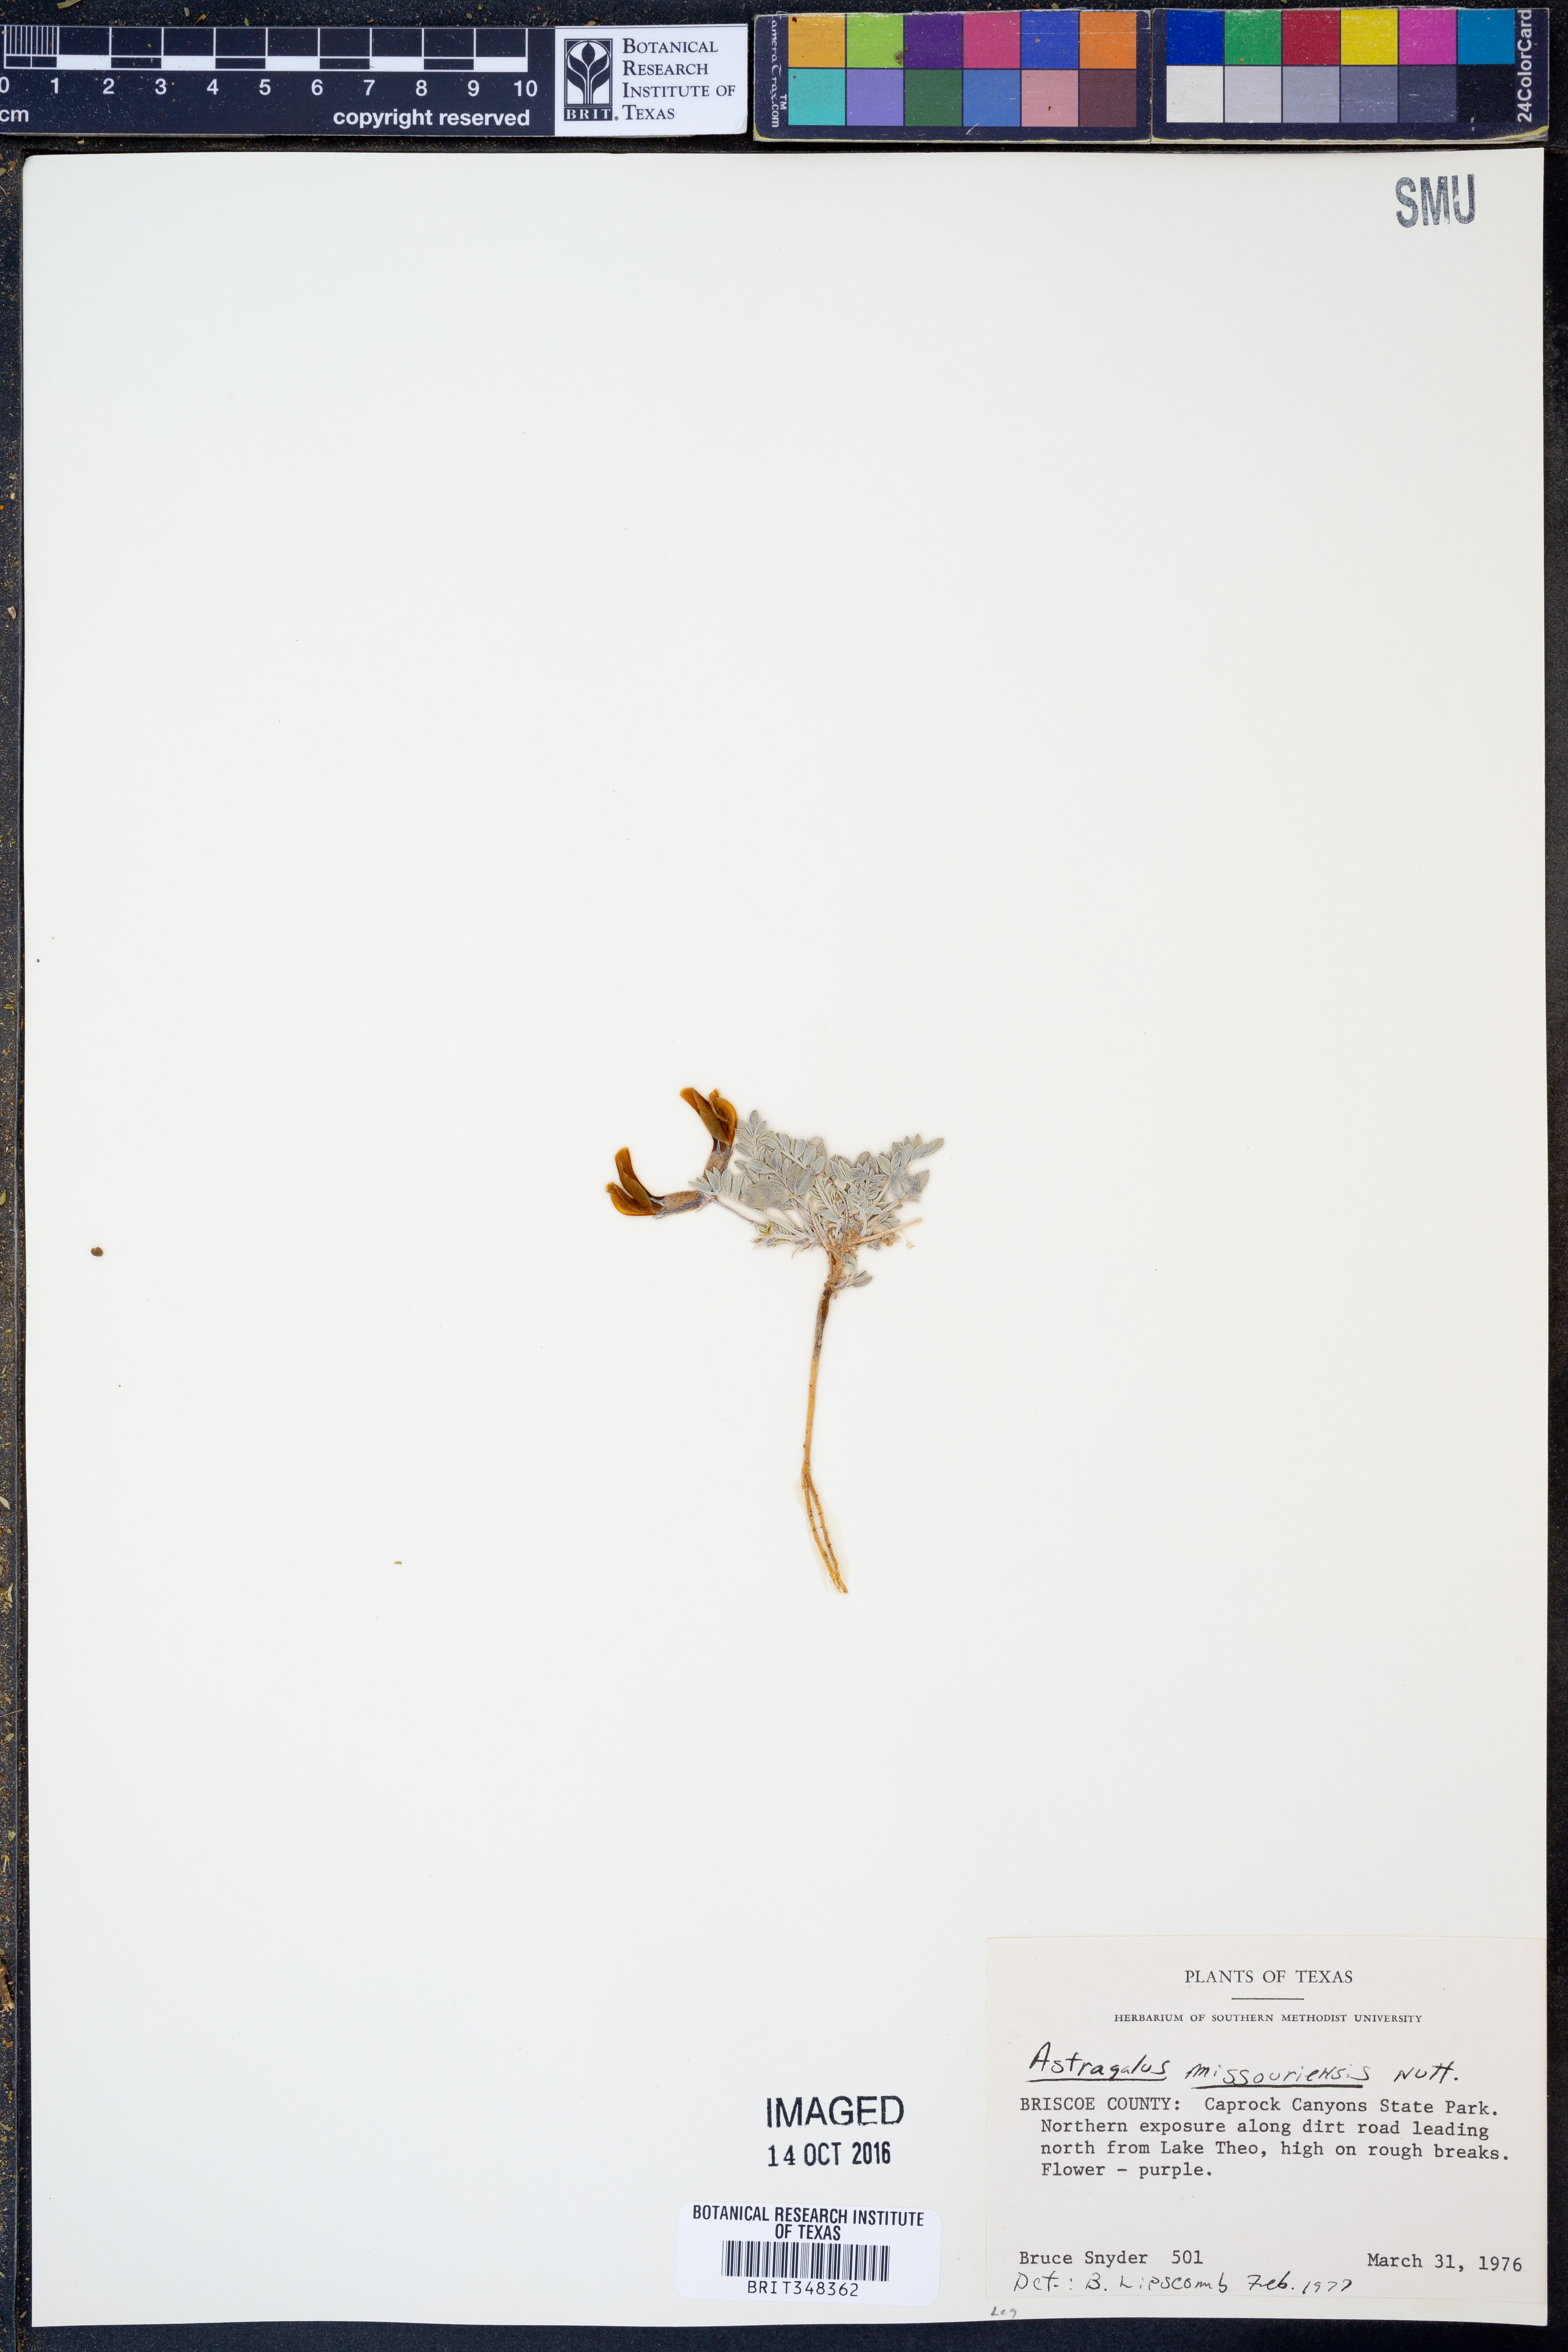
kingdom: Plantae
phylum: Tracheophyta
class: Magnoliopsida
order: Fabales
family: Fabaceae
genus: Astragalus
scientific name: Astragalus missouriensis
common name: Missouri milk-vetch
